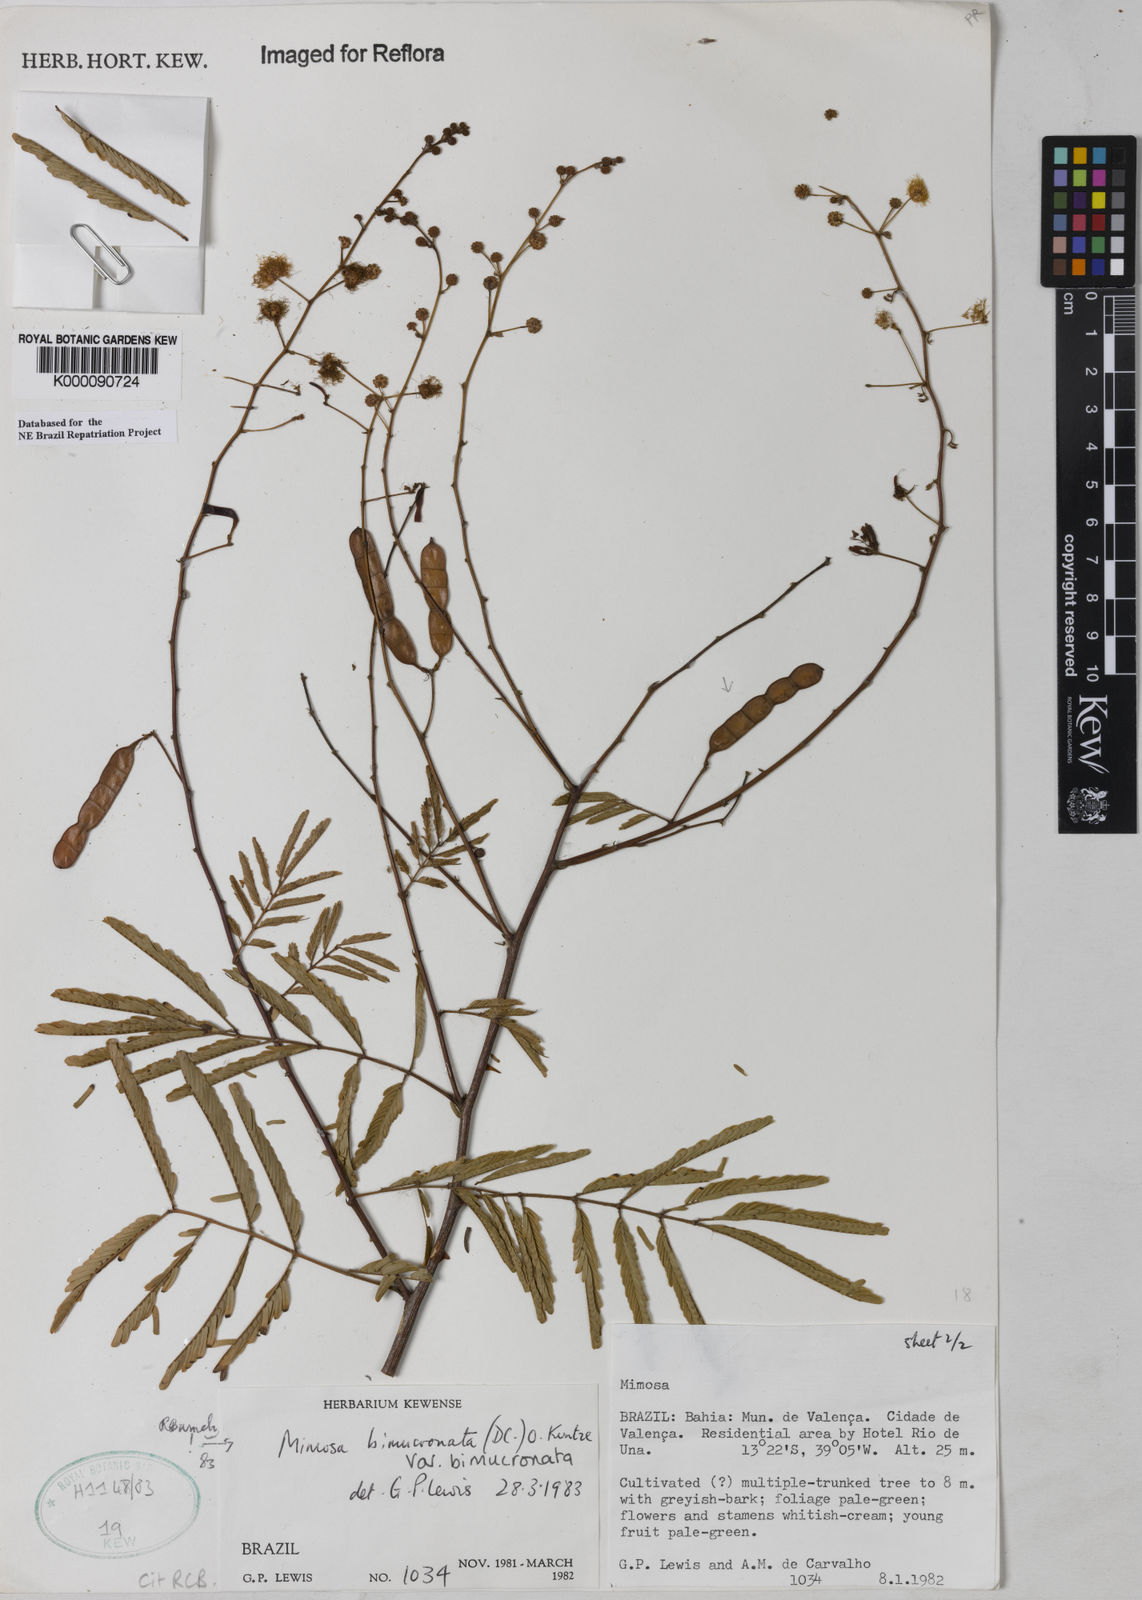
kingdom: Plantae
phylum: Tracheophyta
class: Magnoliopsida
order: Fabales
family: Fabaceae
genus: Mimosa
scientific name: Mimosa bimucronata
